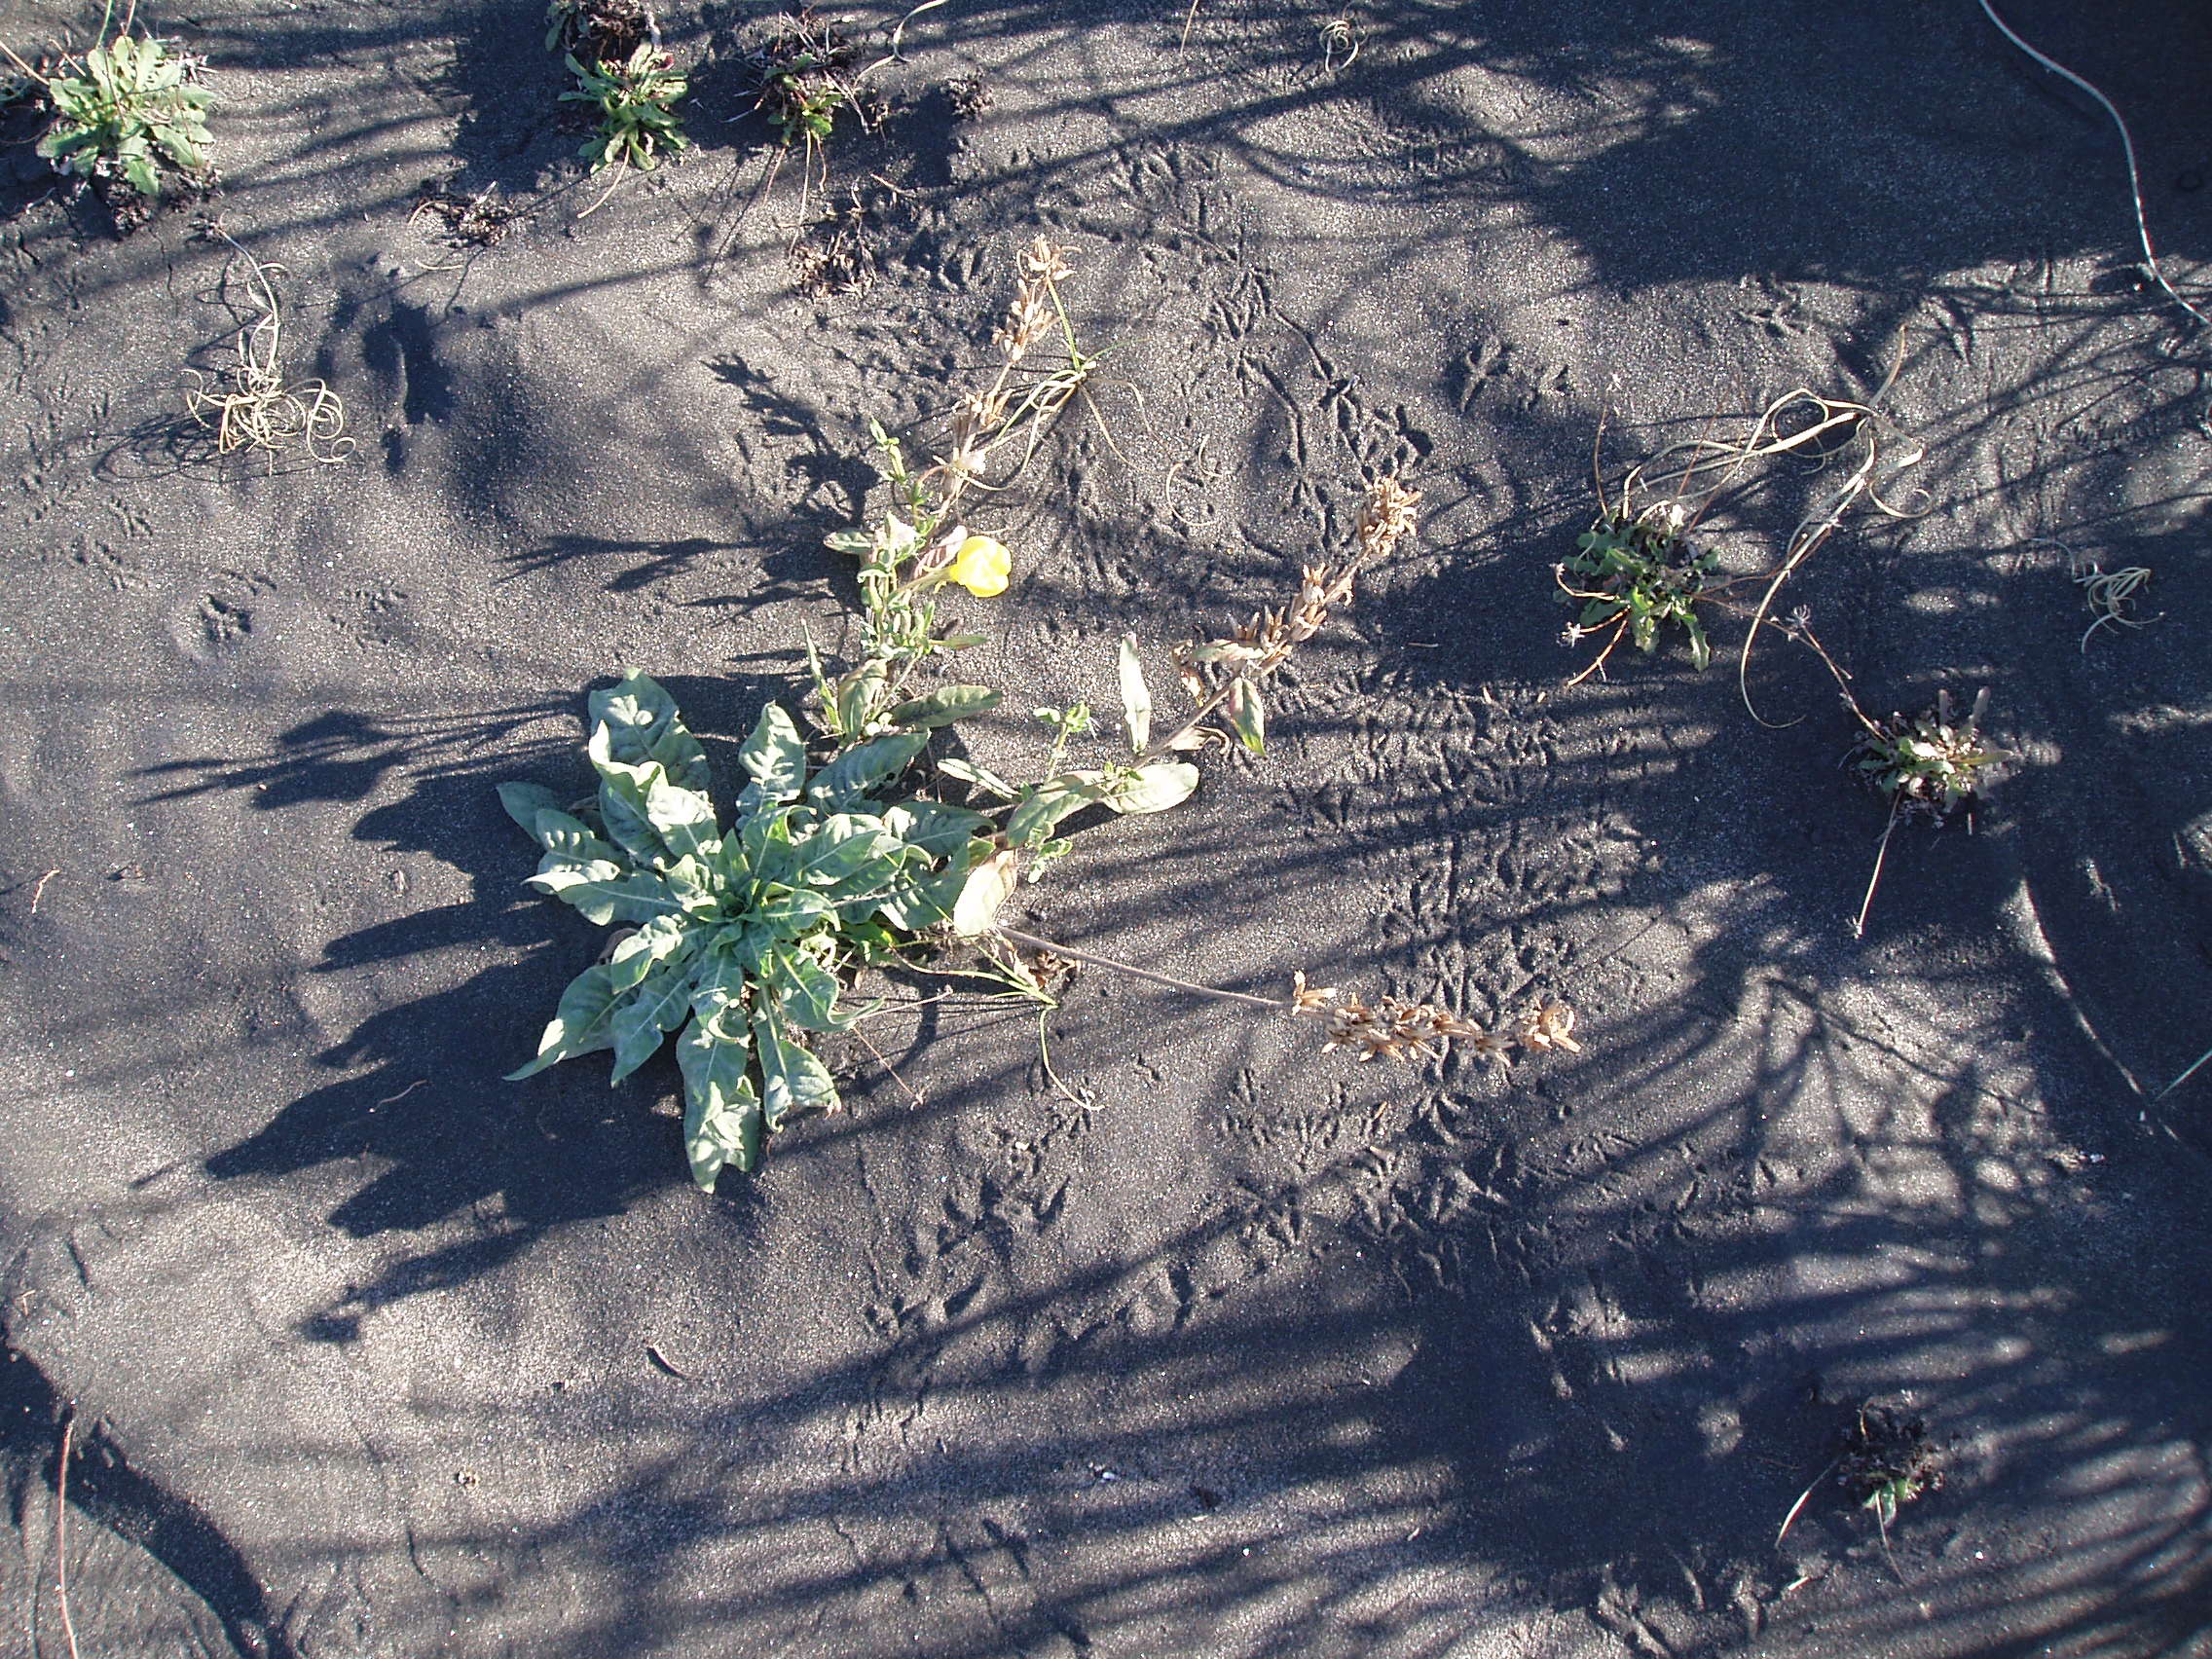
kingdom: Plantae
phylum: Tracheophyta
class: Magnoliopsida
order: Myrtales
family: Onagraceae
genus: Oenothera
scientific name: Oenothera glazioviana
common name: Large-flowered evening-primrose
